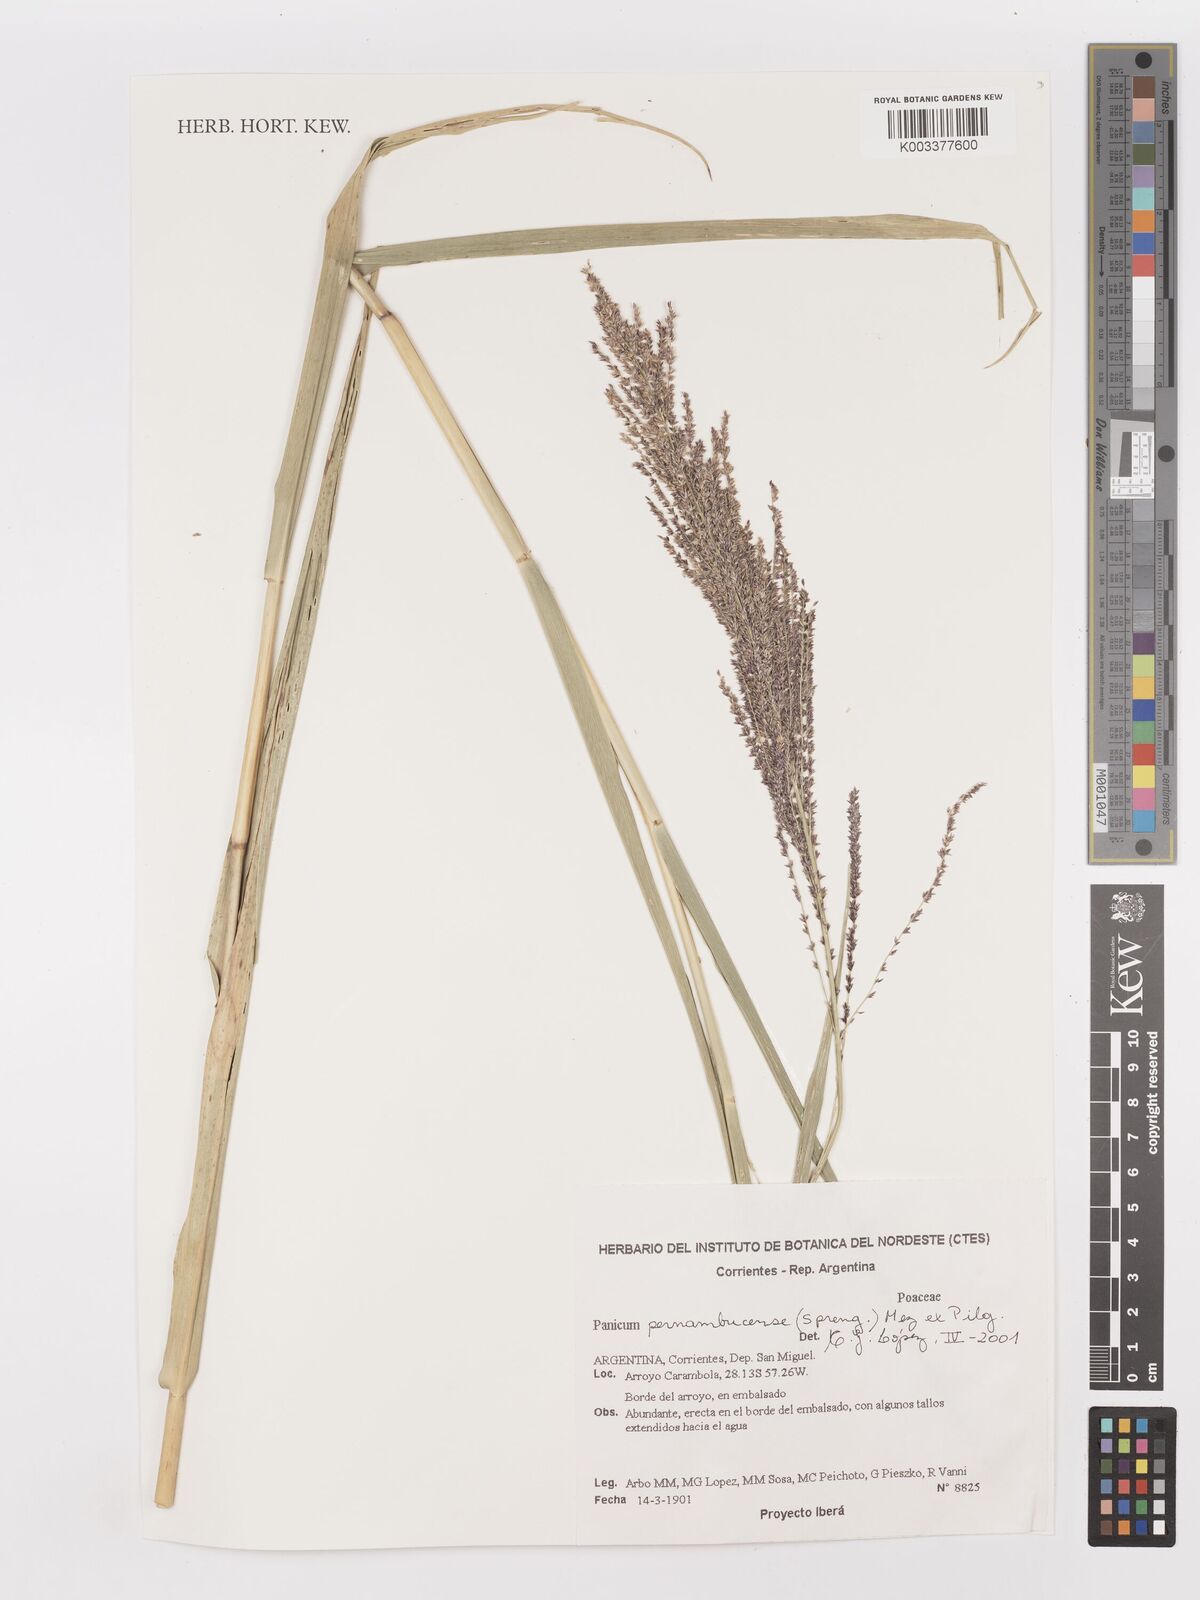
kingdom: Plantae
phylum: Tracheophyta
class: Liliopsida
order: Poales
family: Poaceae
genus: Hymenachne
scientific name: Hymenachne pernambucensis
